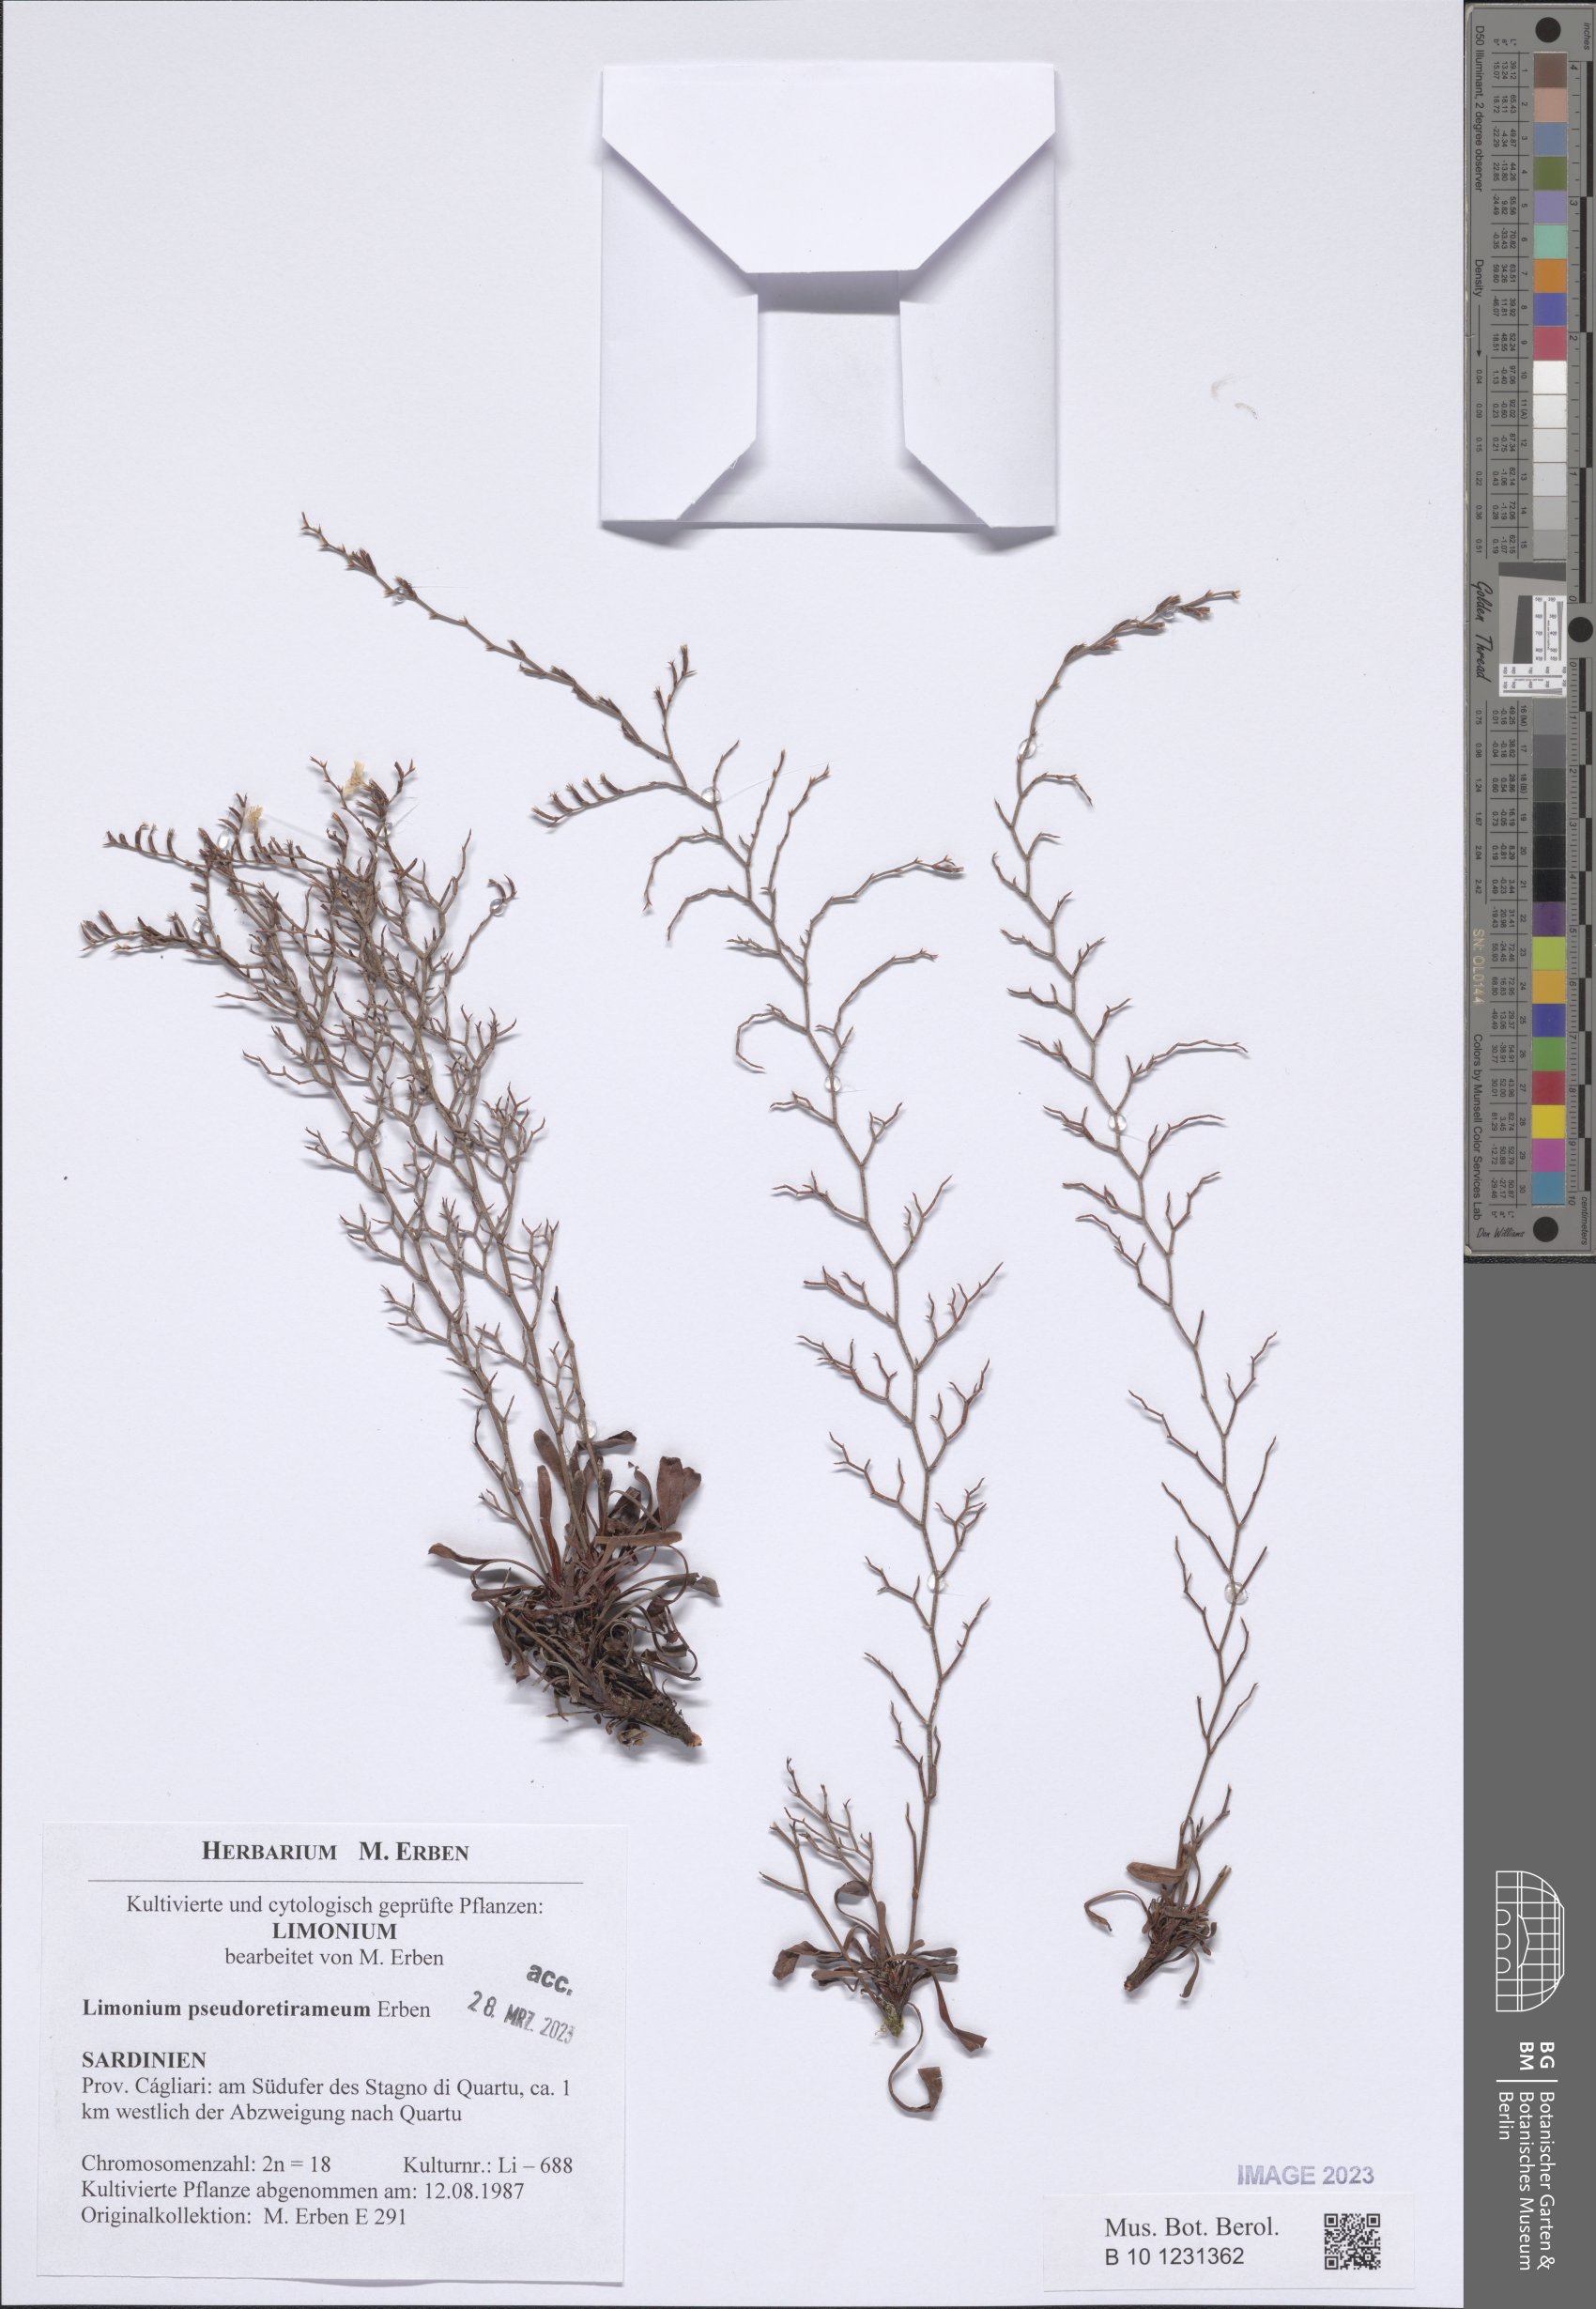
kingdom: Plantae
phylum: Tracheophyta
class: Magnoliopsida
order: Caryophyllales
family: Plumbaginaceae
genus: Limonium
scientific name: Limonium
